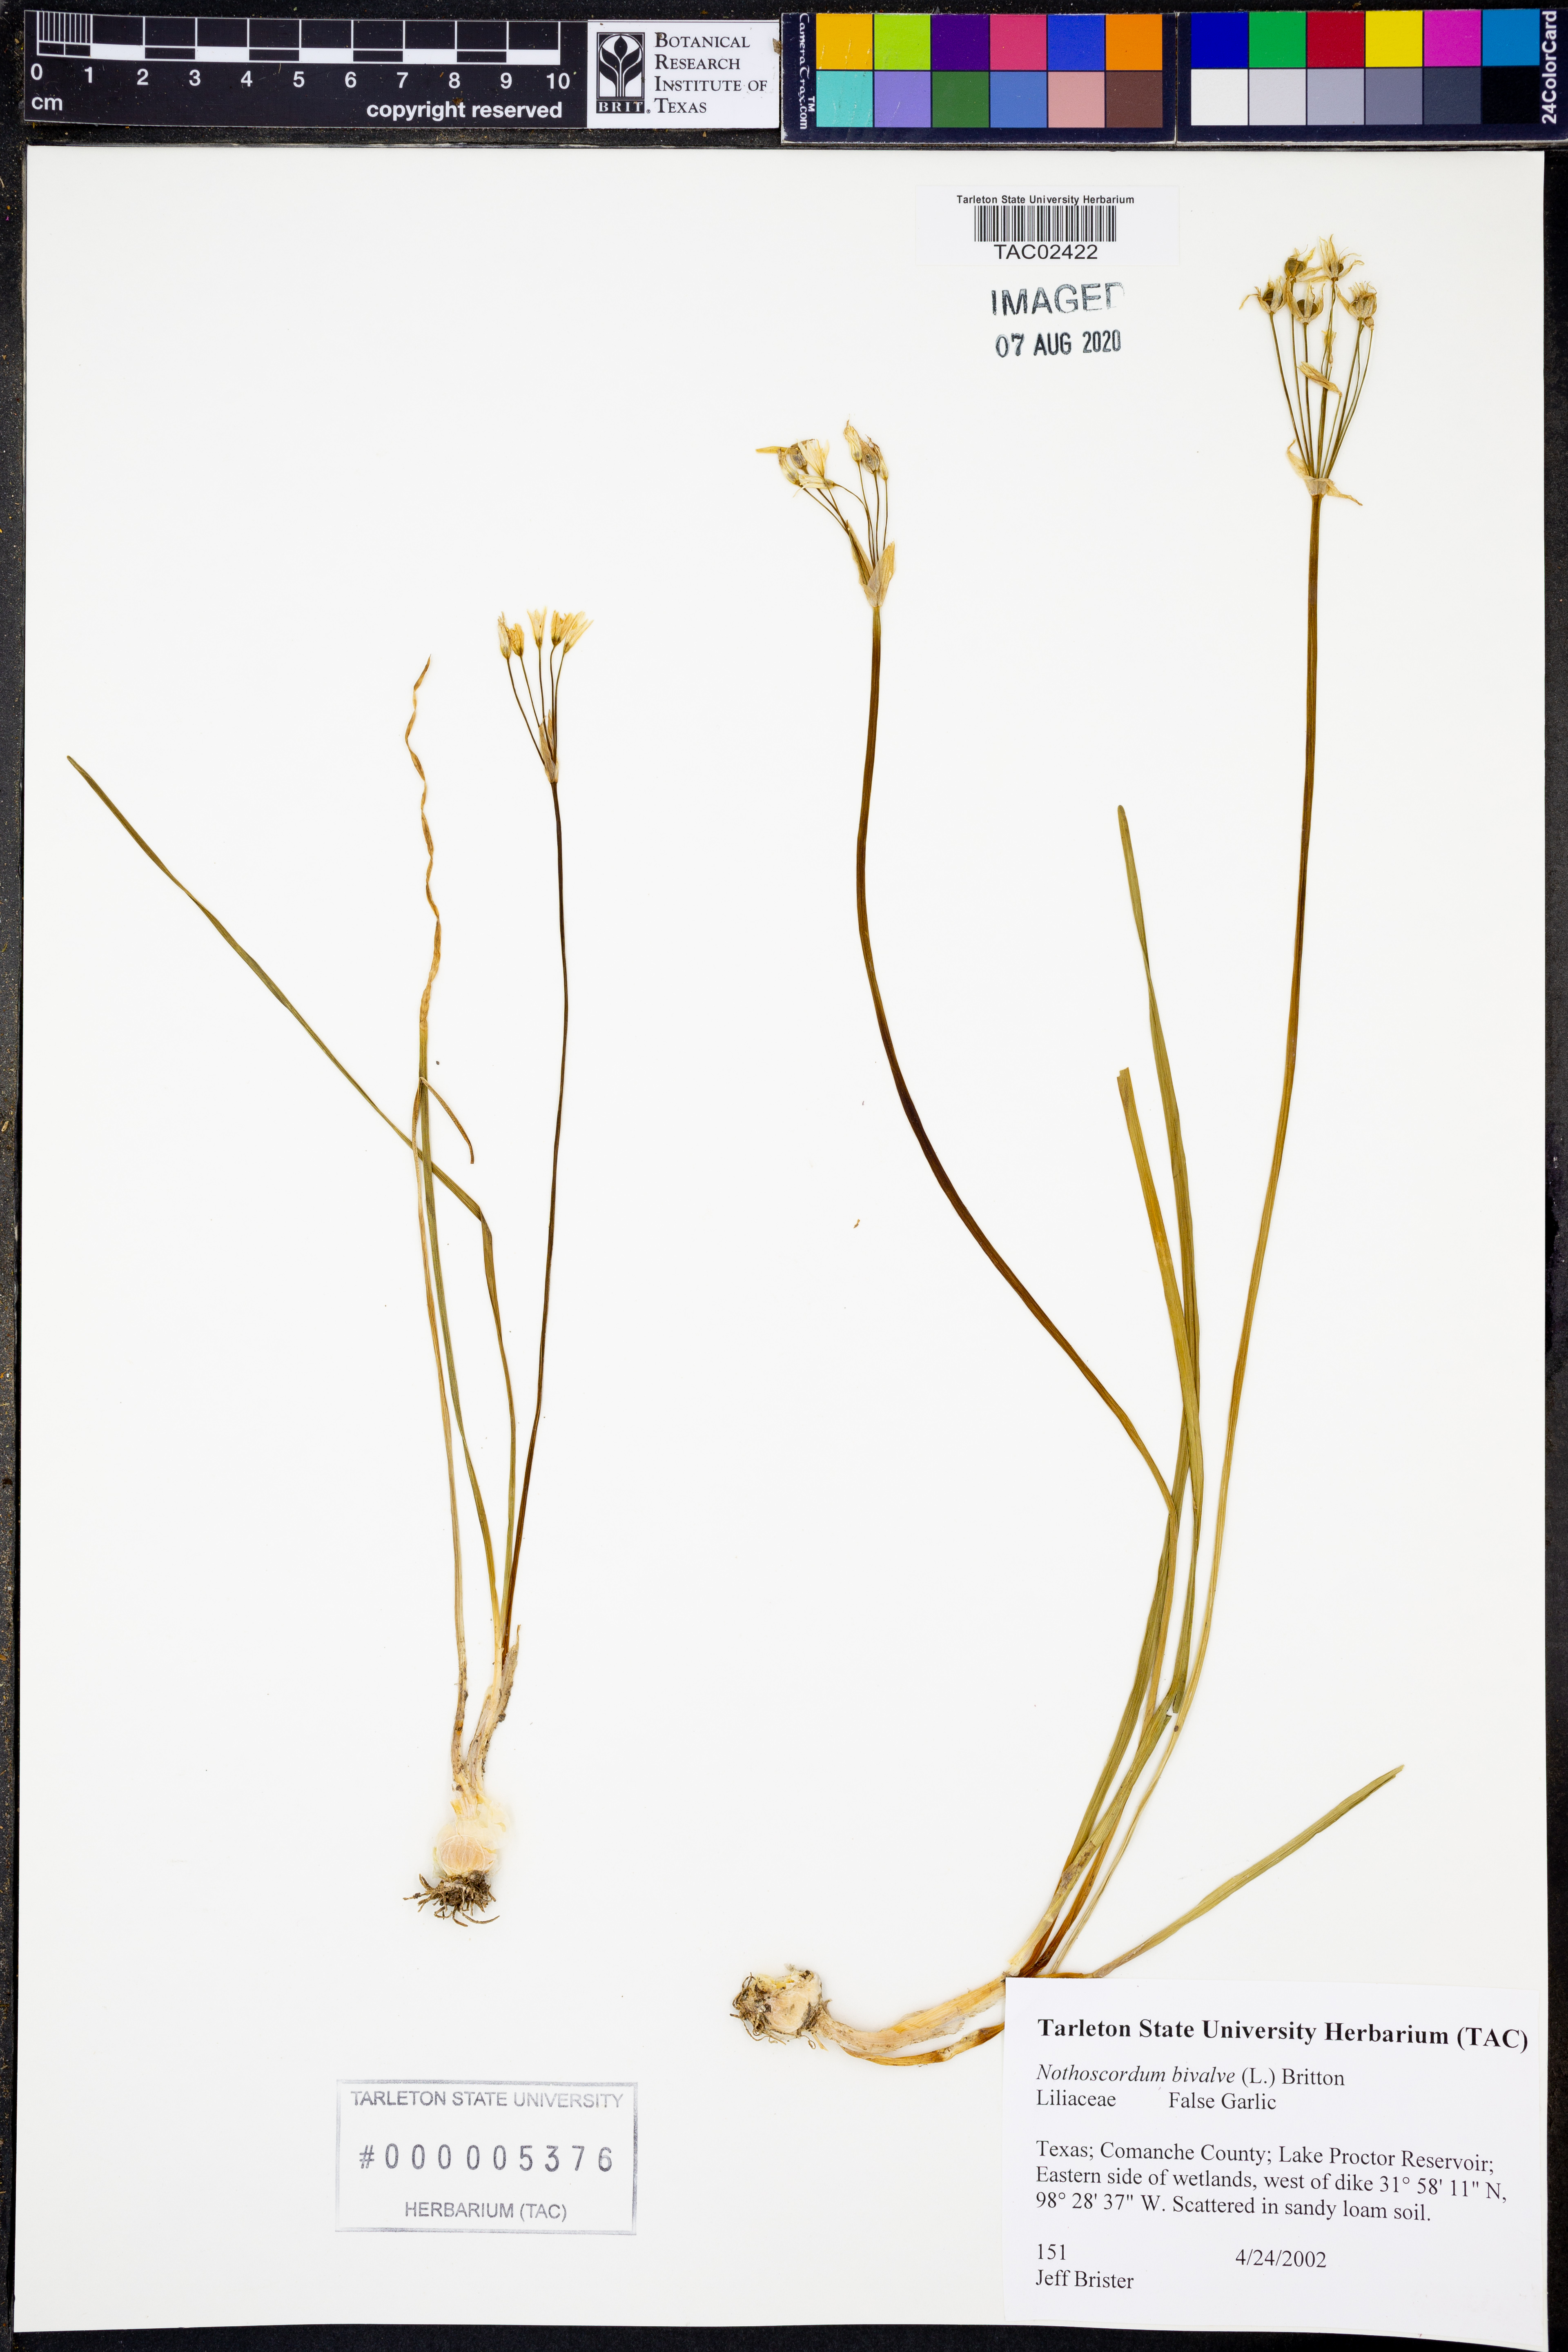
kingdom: Plantae
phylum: Tracheophyta
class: Liliopsida
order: Asparagales
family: Amaryllidaceae
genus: Nothoscordum
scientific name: Nothoscordum bivalve
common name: Crow-poison
